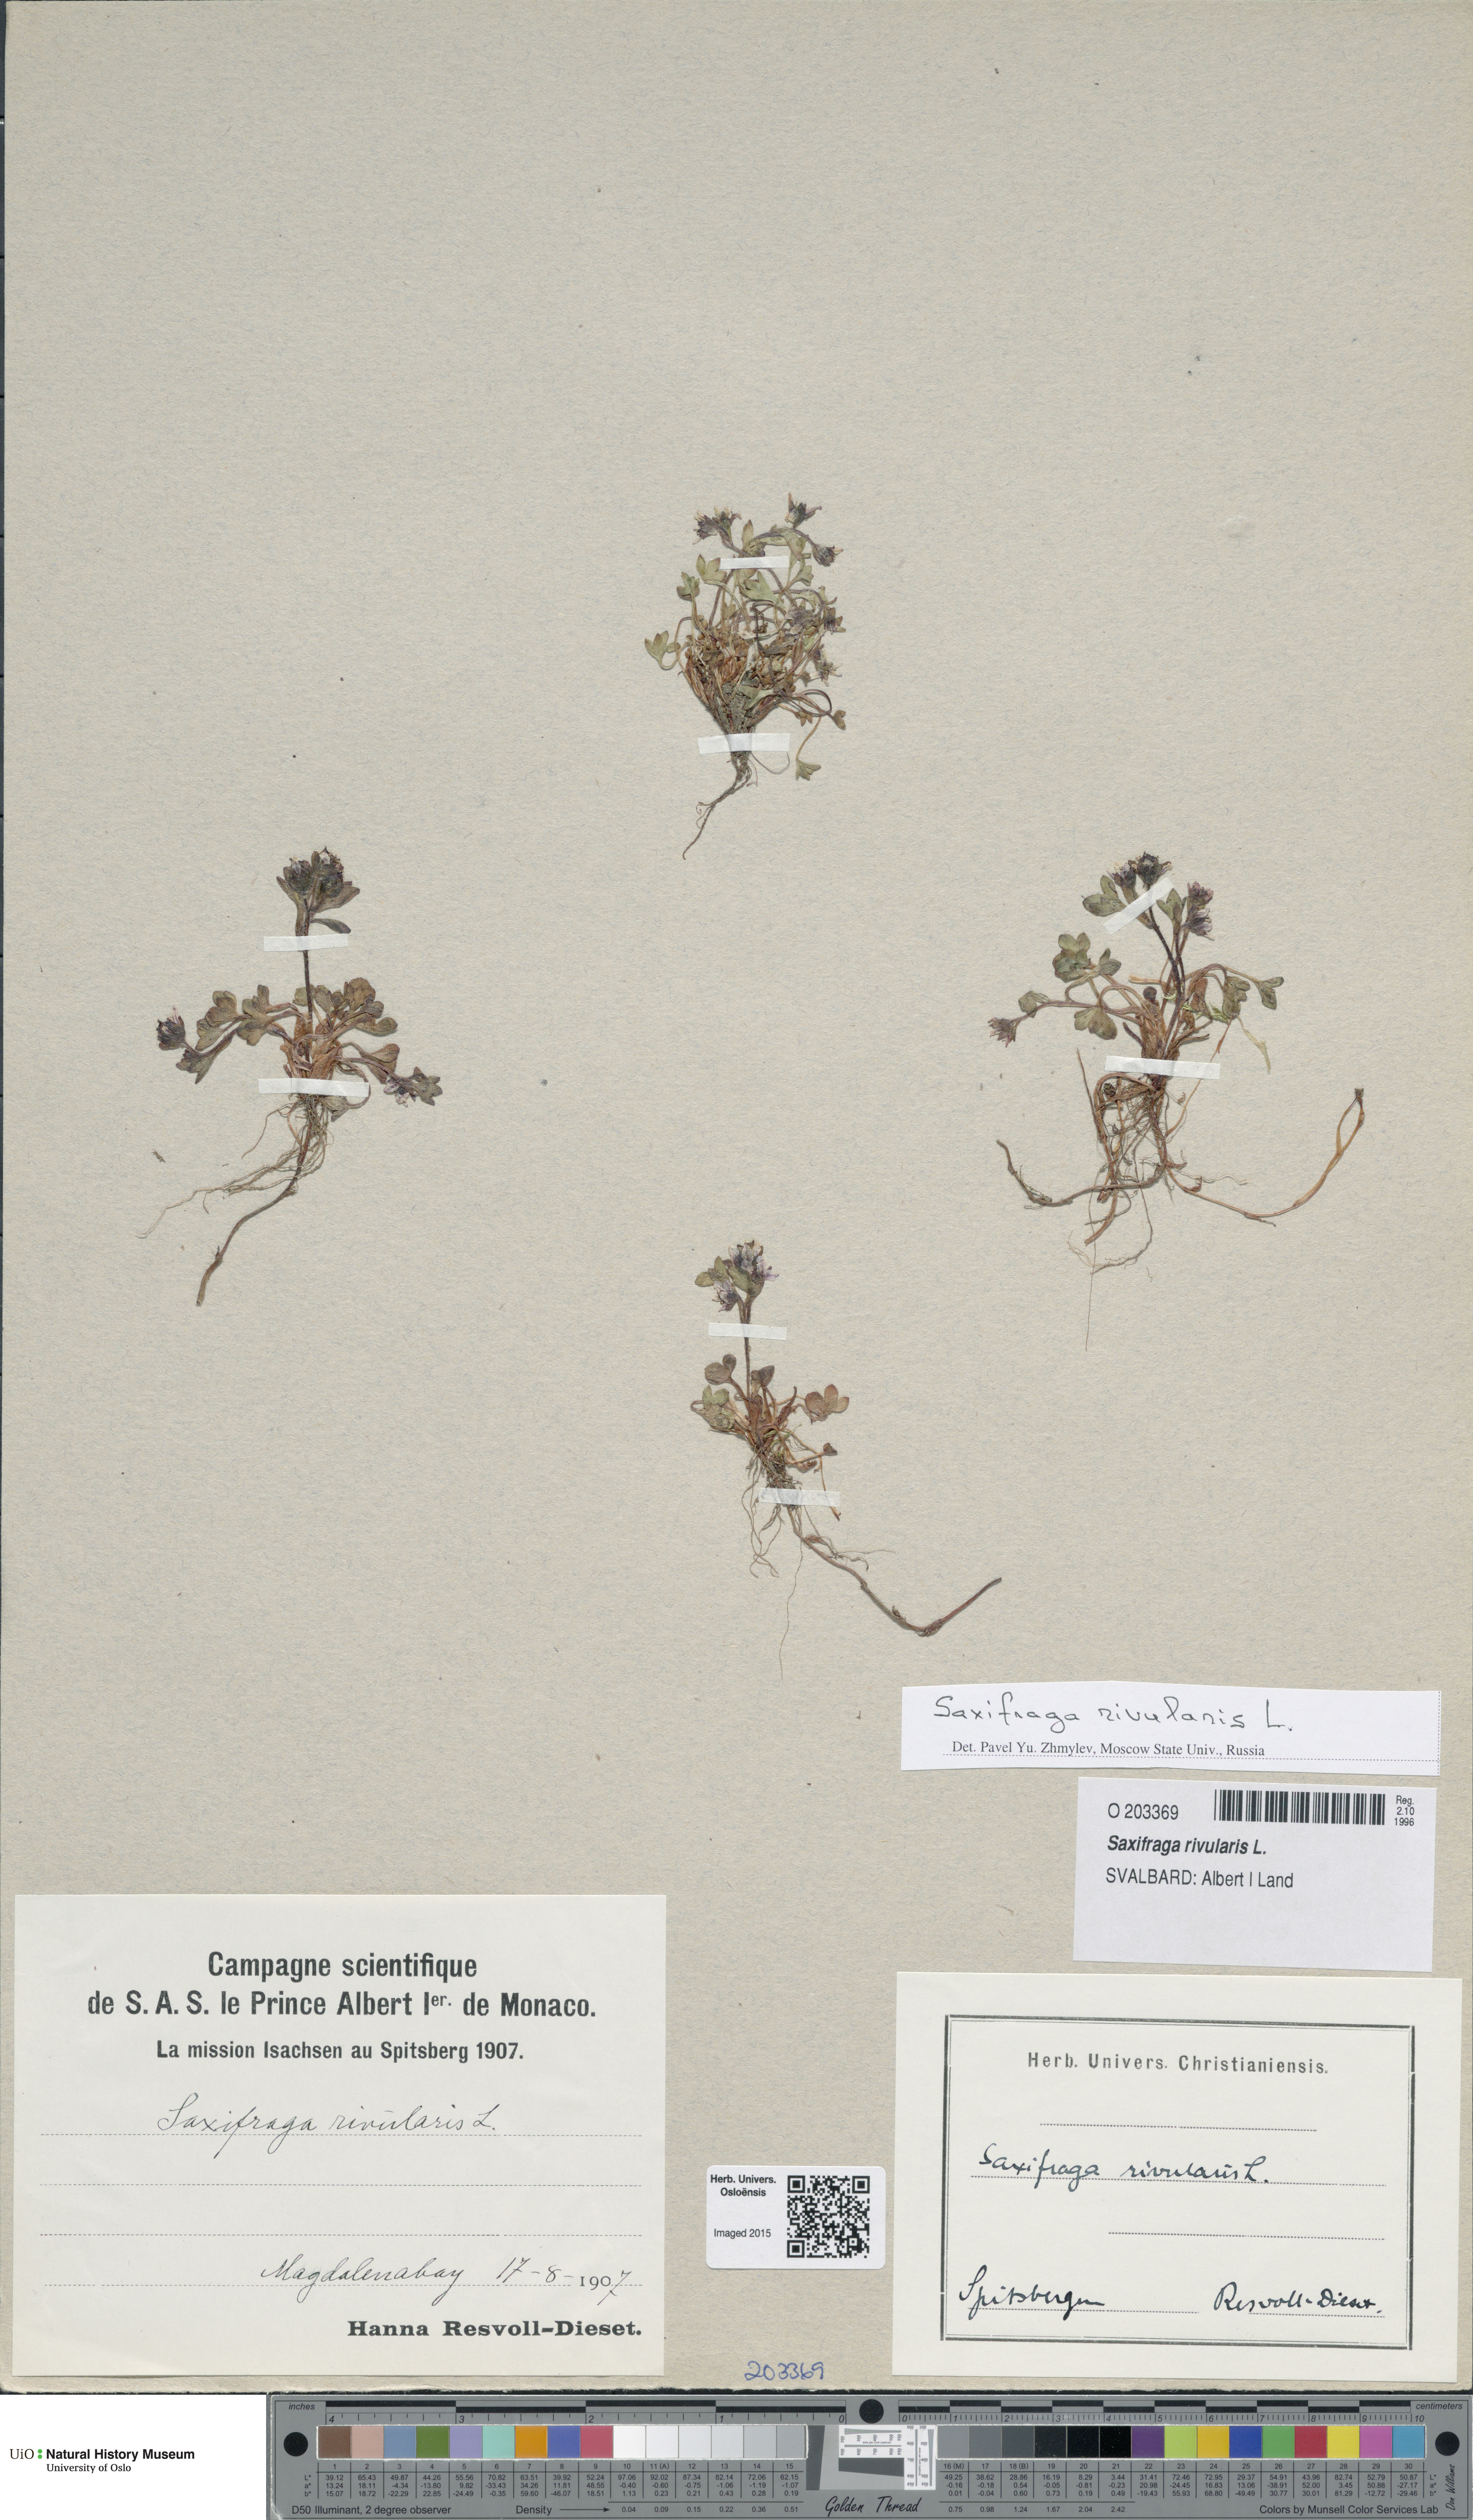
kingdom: Plantae
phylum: Tracheophyta
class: Magnoliopsida
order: Saxifragales
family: Saxifragaceae
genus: Saxifraga
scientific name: Saxifraga rivularis
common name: Highland saxifrage
